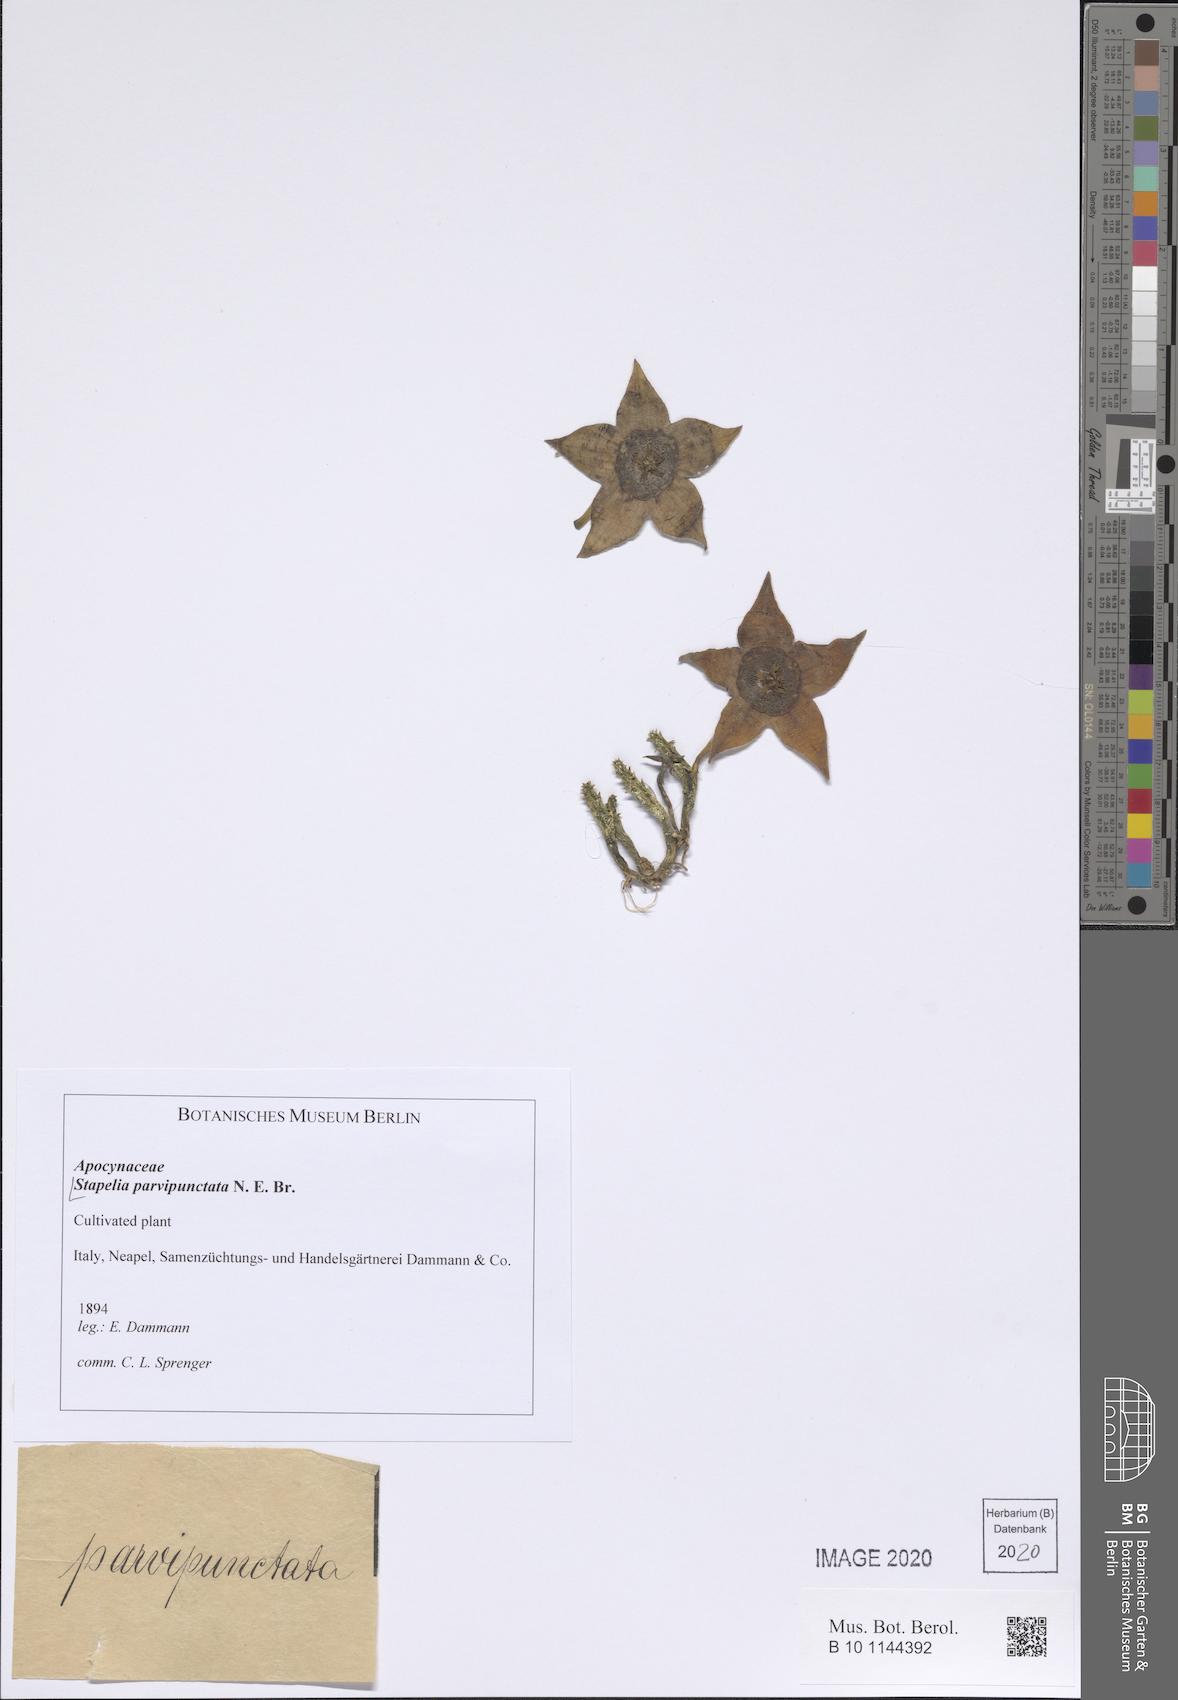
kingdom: Plantae
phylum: Tracheophyta
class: Magnoliopsida
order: Gentianales
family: Apocynaceae
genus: Stapelia
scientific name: Stapelia parvipunctata
